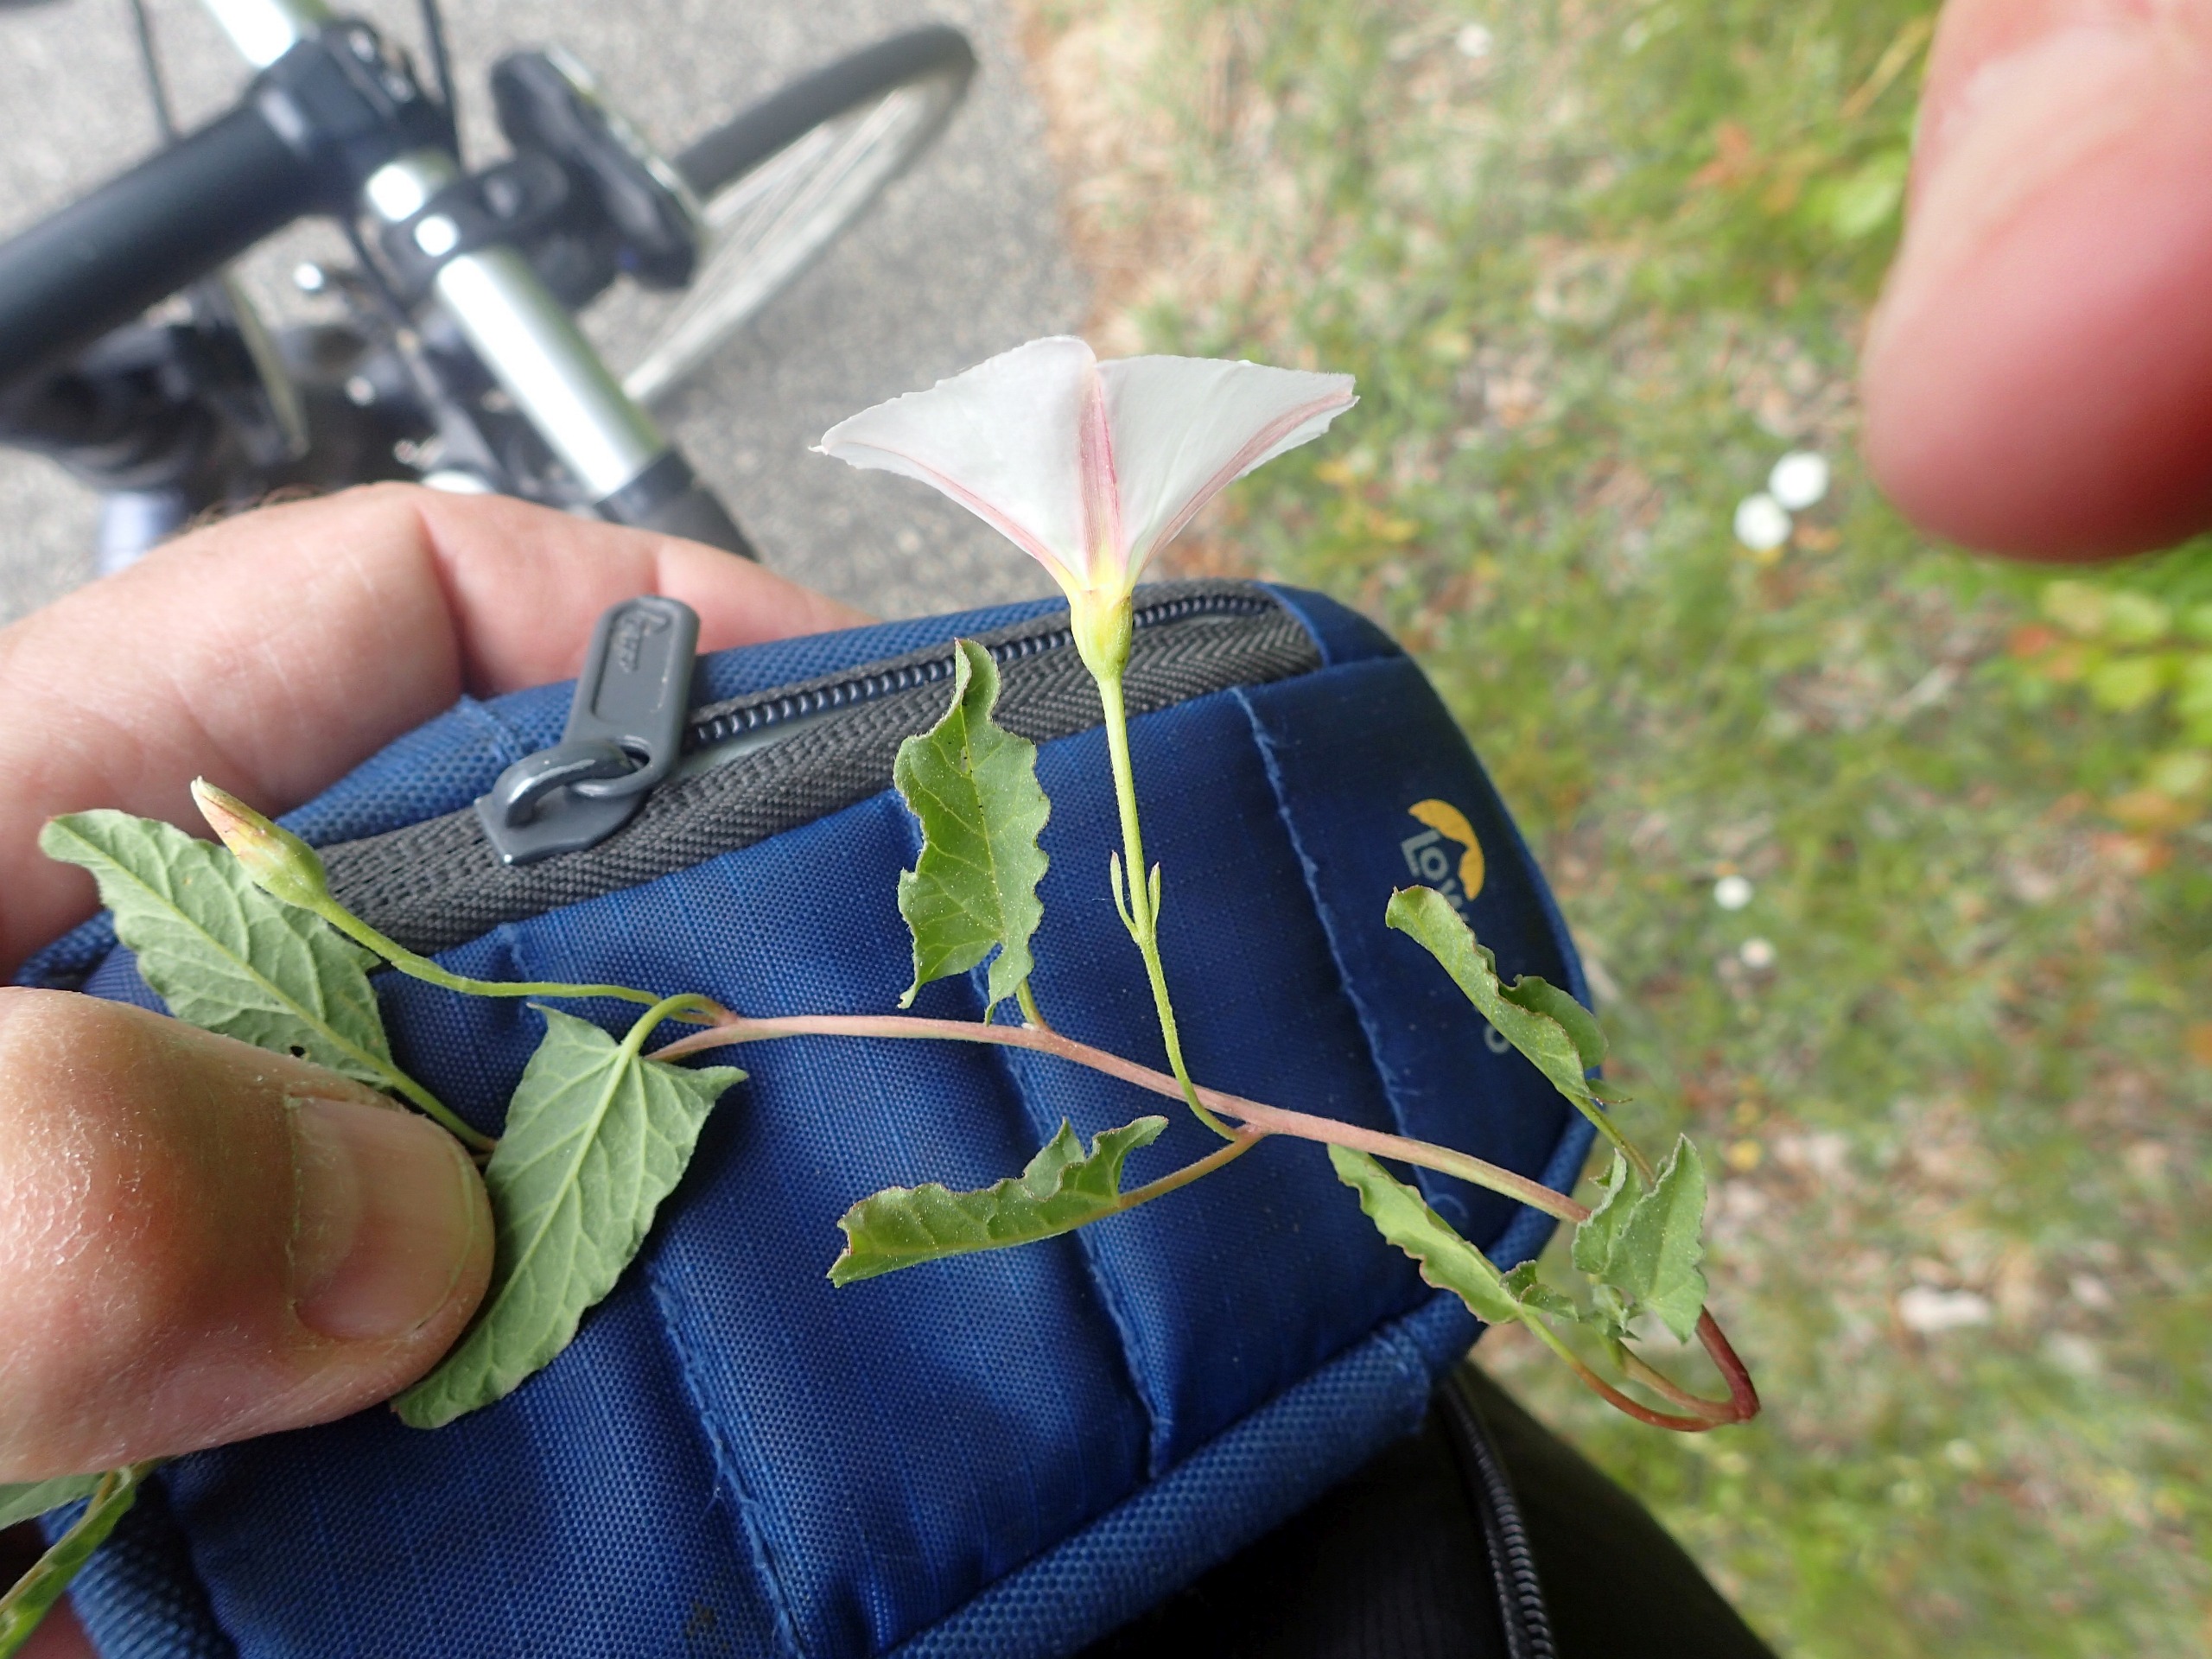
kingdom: Plantae
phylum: Tracheophyta
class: Magnoliopsida
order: Solanales
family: Convolvulaceae
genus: Convolvulus
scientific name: Convolvulus arvensis
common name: Ager-snerle
